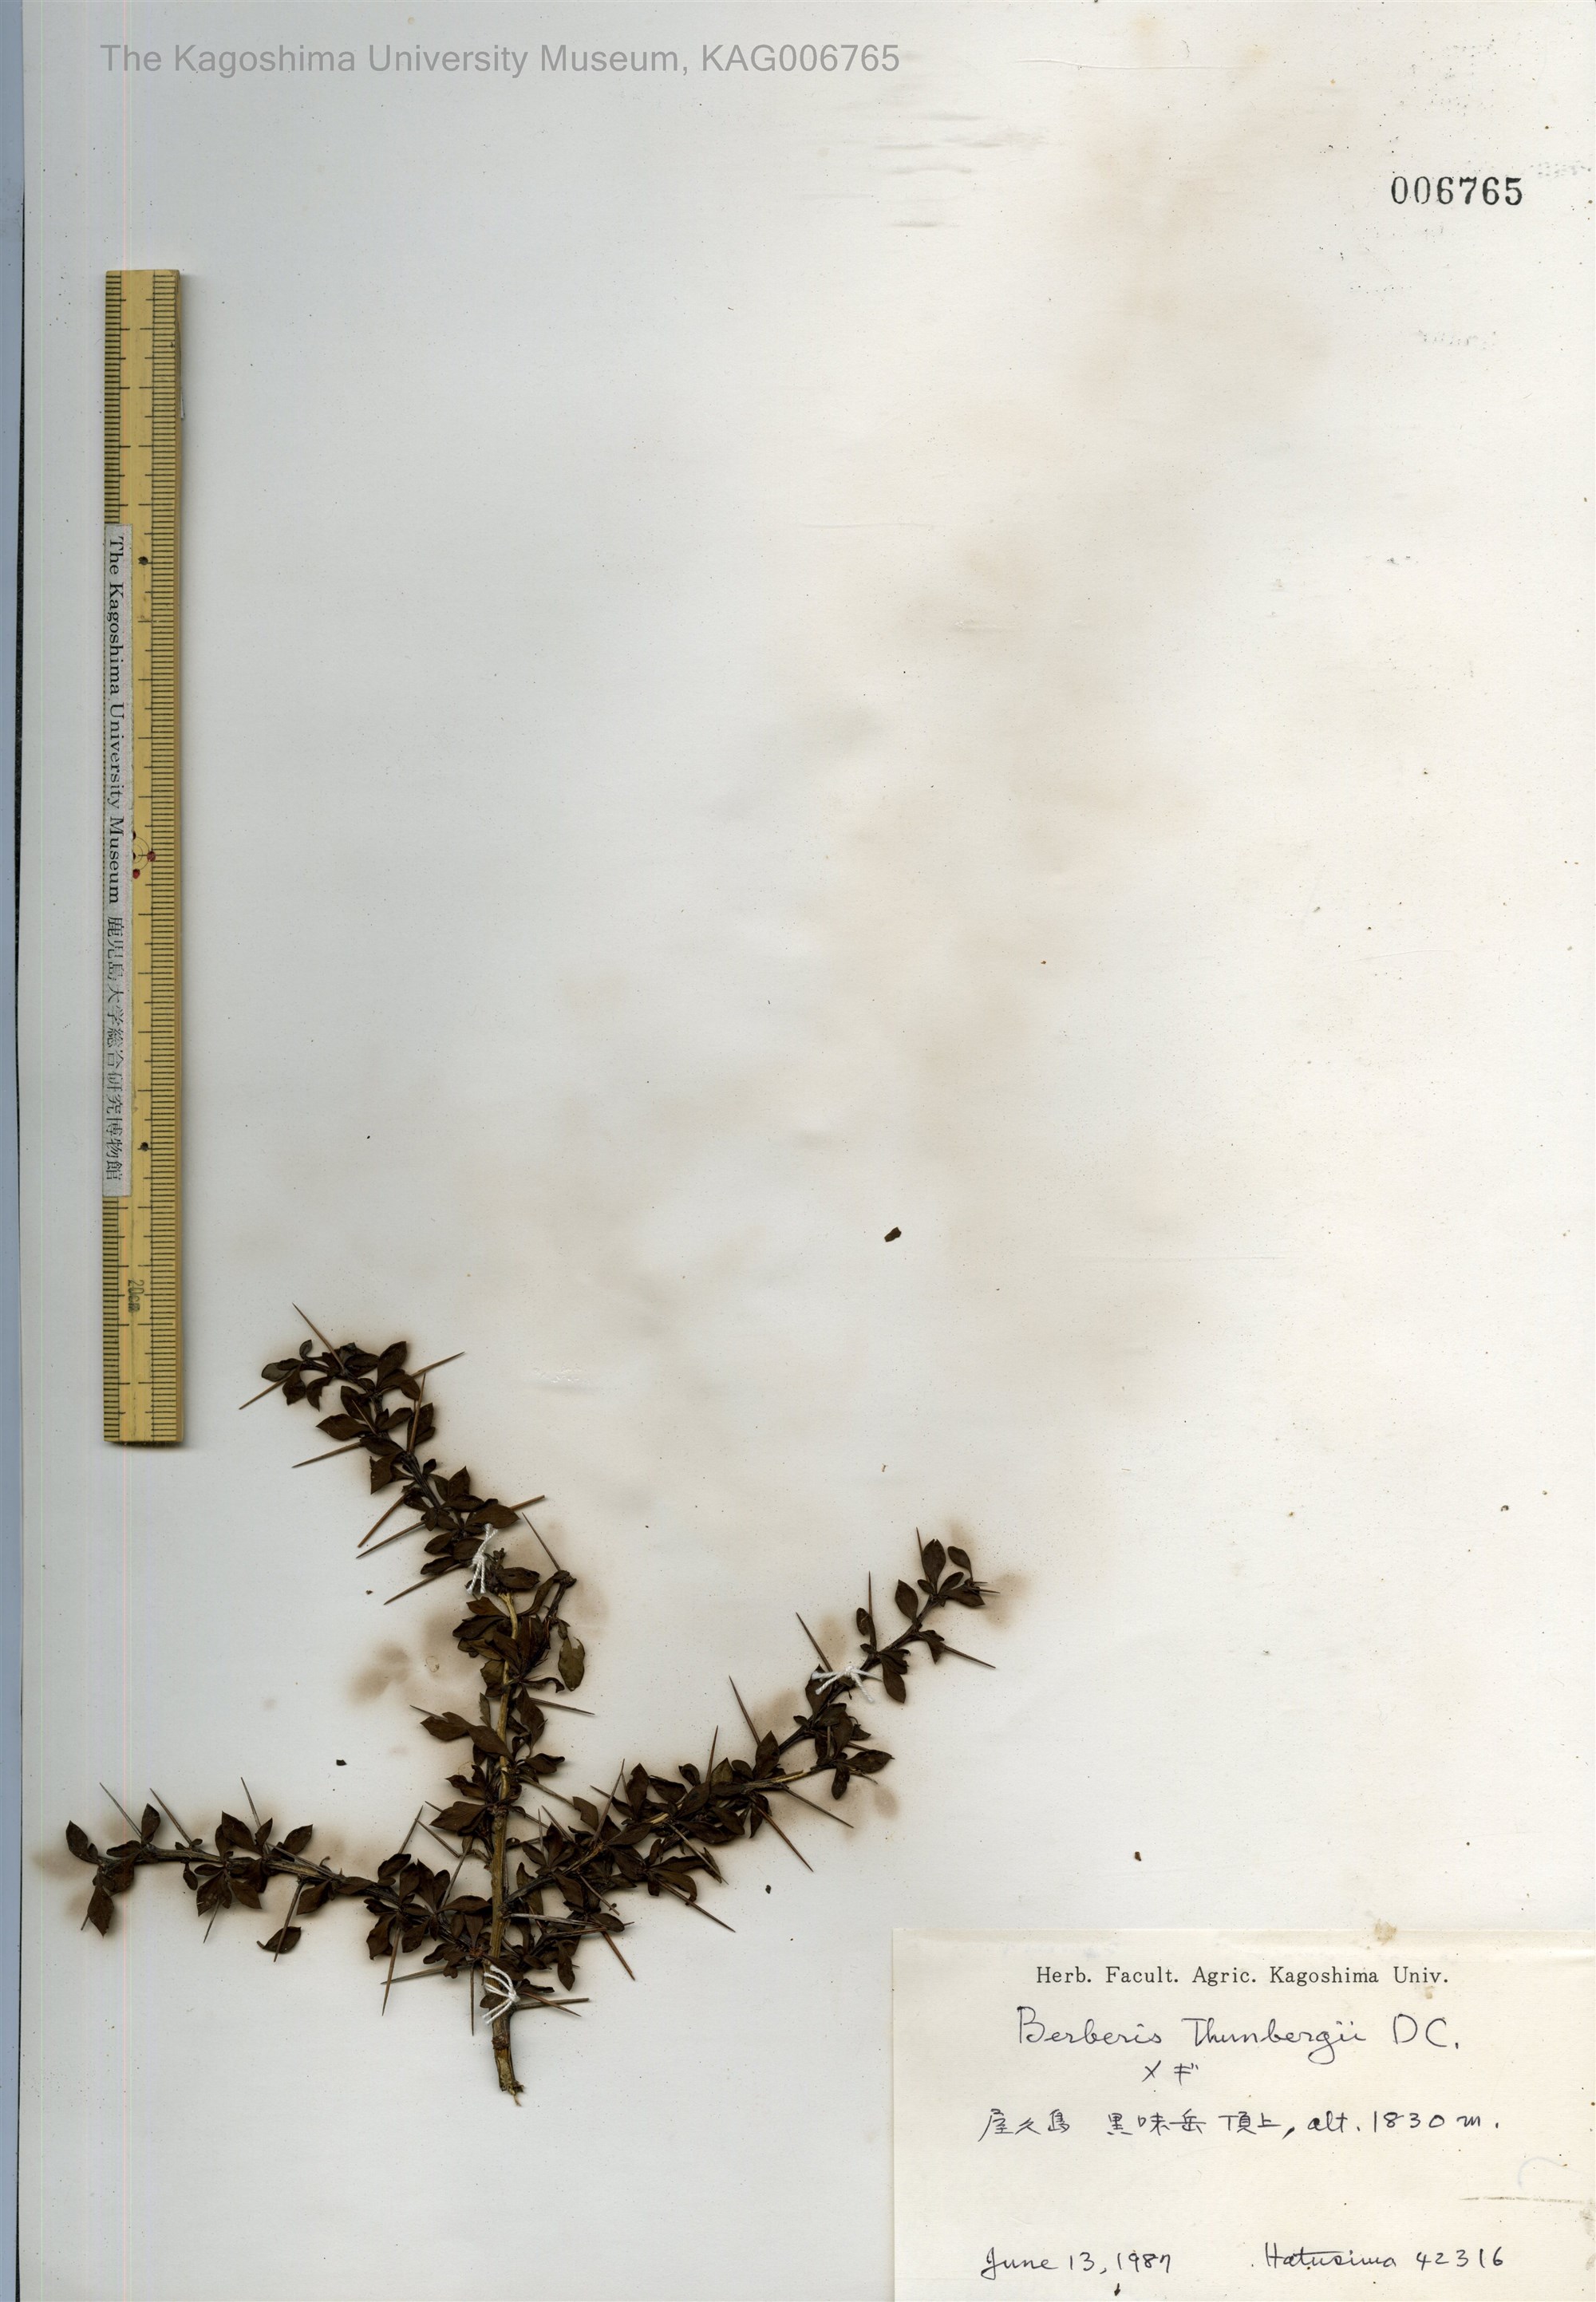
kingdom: Plantae
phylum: Tracheophyta
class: Magnoliopsida
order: Ranunculales
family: Berberidaceae
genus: Berberis
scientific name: Berberis thunbergii
